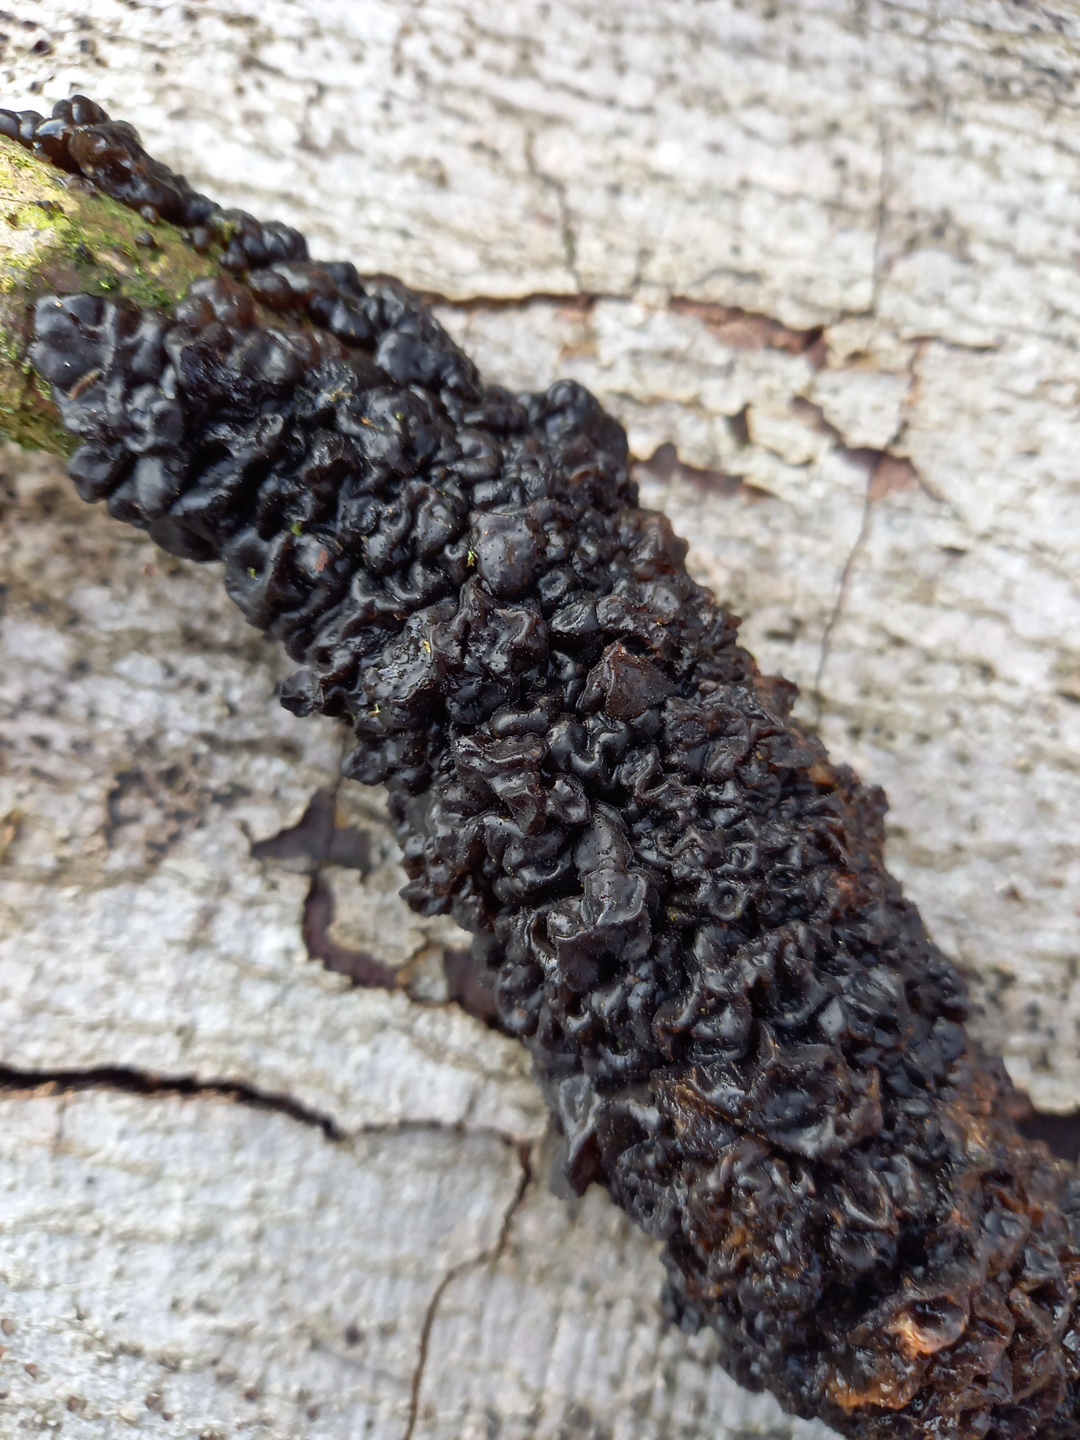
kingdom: Fungi
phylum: Basidiomycota
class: Agaricomycetes
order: Auriculariales
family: Auriculariaceae
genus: Exidia
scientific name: Exidia nigricans
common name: almindelig bævretop
